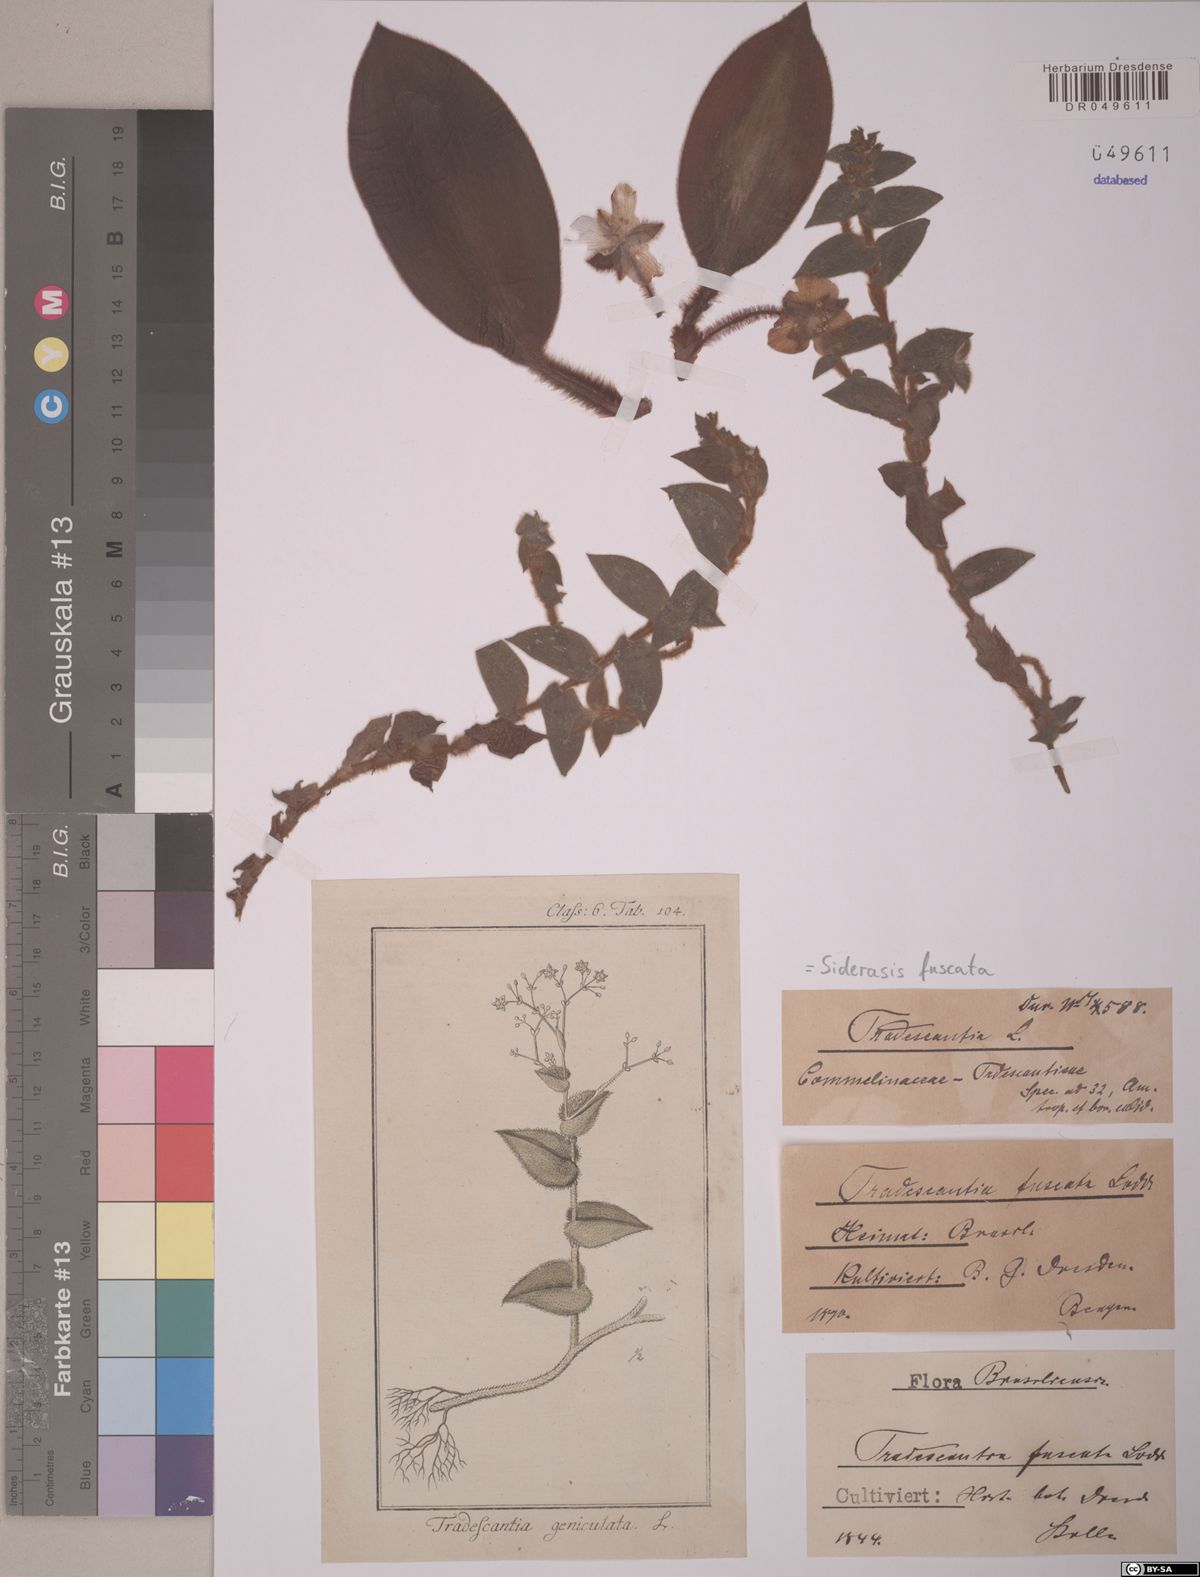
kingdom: Plantae
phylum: Tracheophyta
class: Liliopsida
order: Commelinales
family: Commelinaceae
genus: Siderasis
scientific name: Siderasis fuscata
